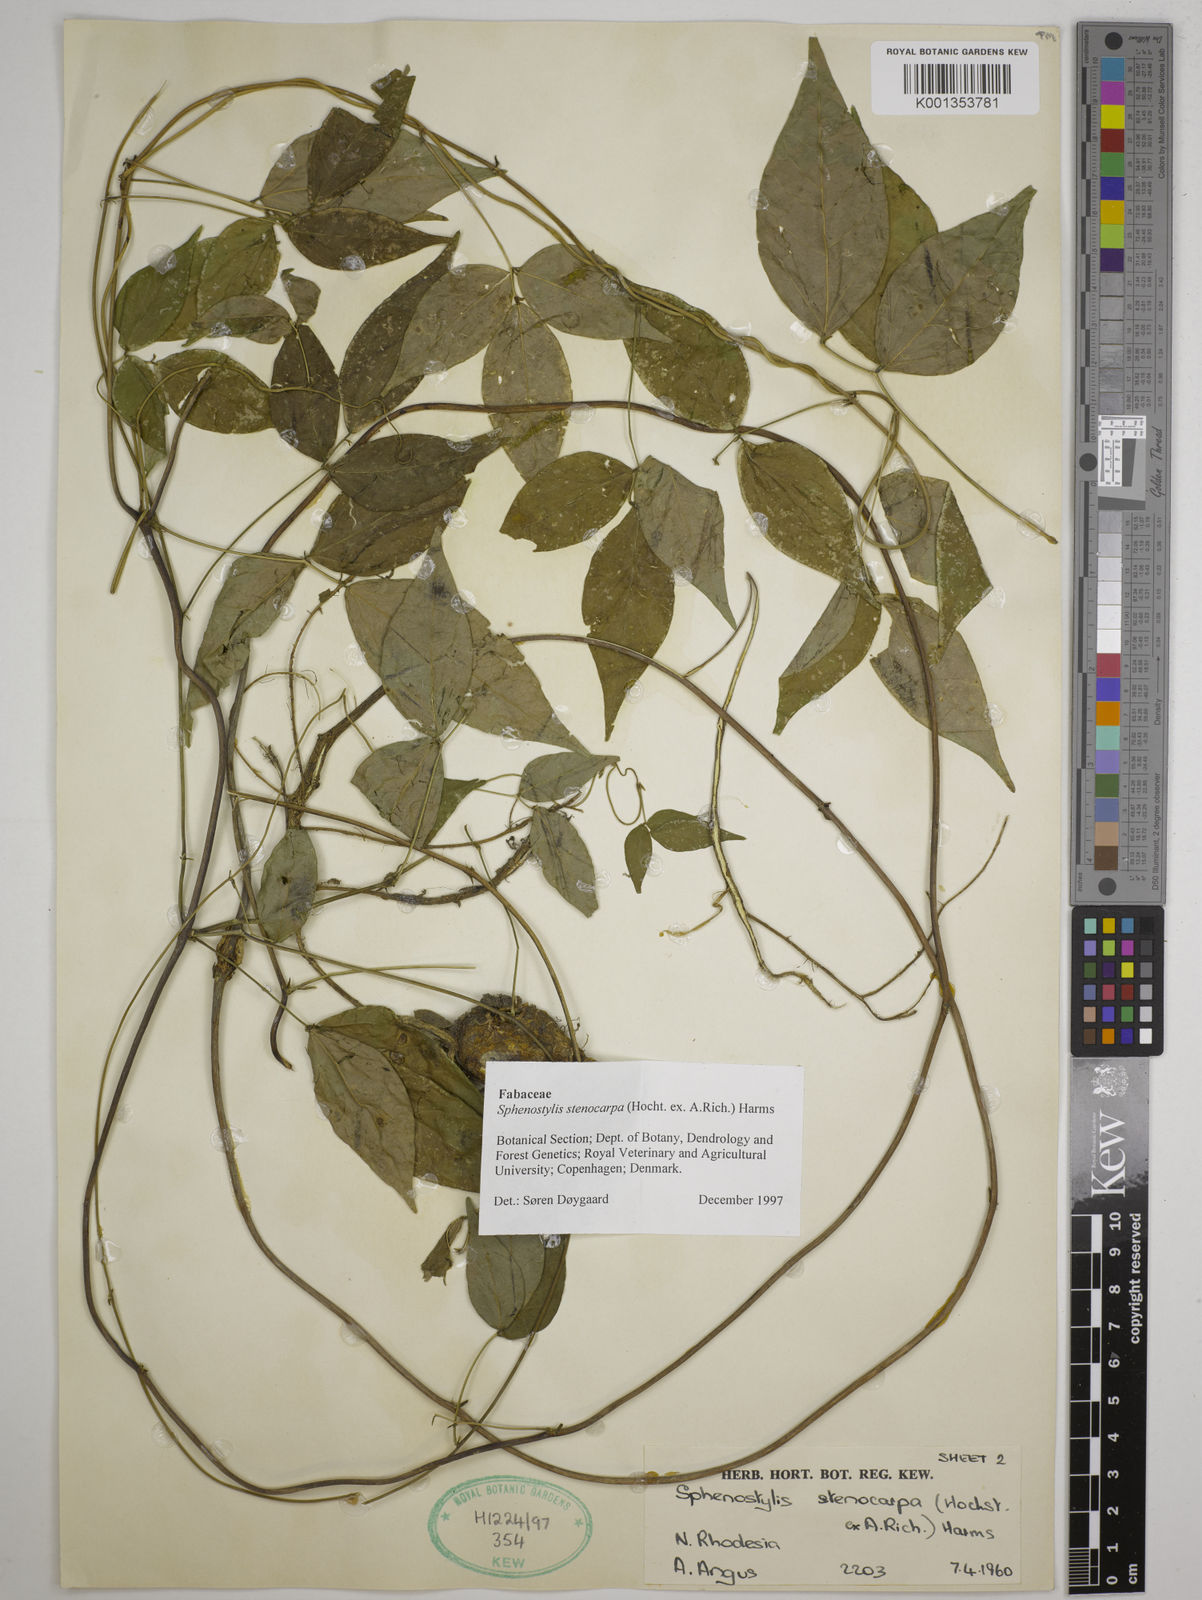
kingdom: Plantae
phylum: Tracheophyta
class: Magnoliopsida
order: Fabales
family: Fabaceae
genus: Sphenostylis
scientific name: Sphenostylis stenocarpa
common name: Yam-pea
